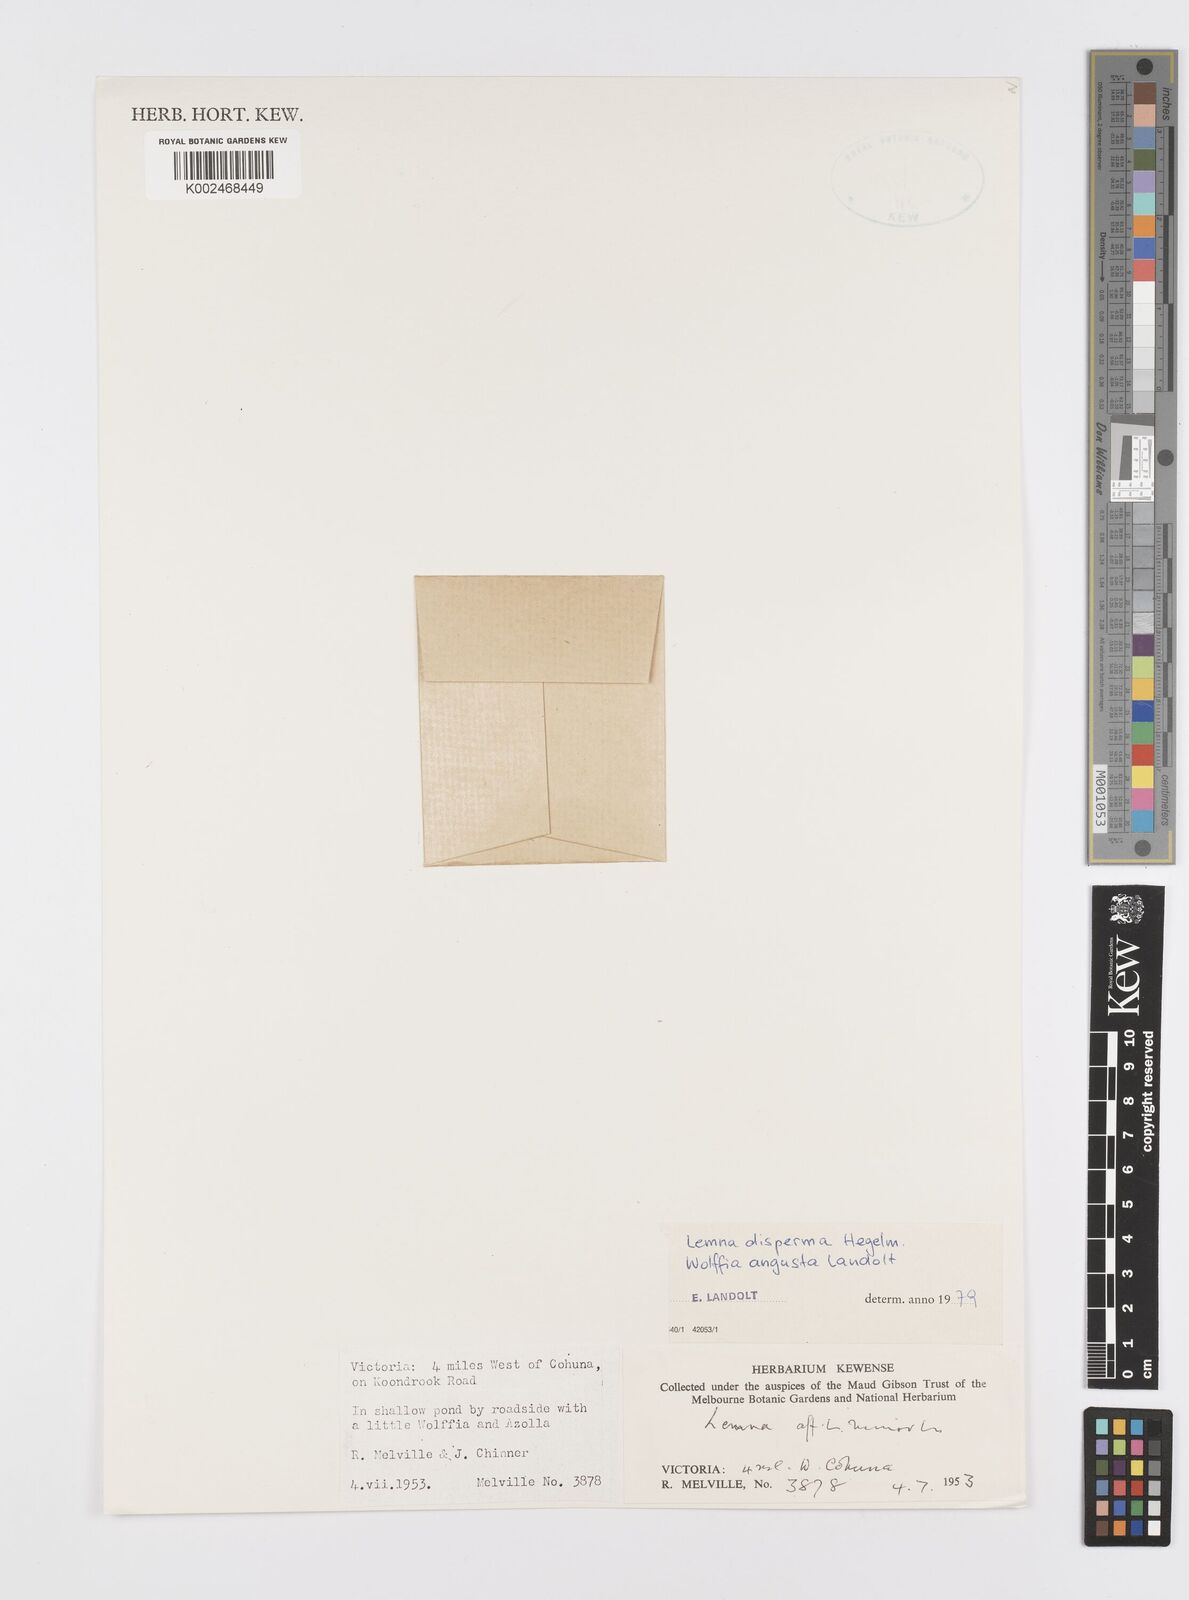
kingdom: Plantae
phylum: Tracheophyta
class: Liliopsida
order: Alismatales
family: Araceae
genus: Wolffia
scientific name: Wolffia angusta
